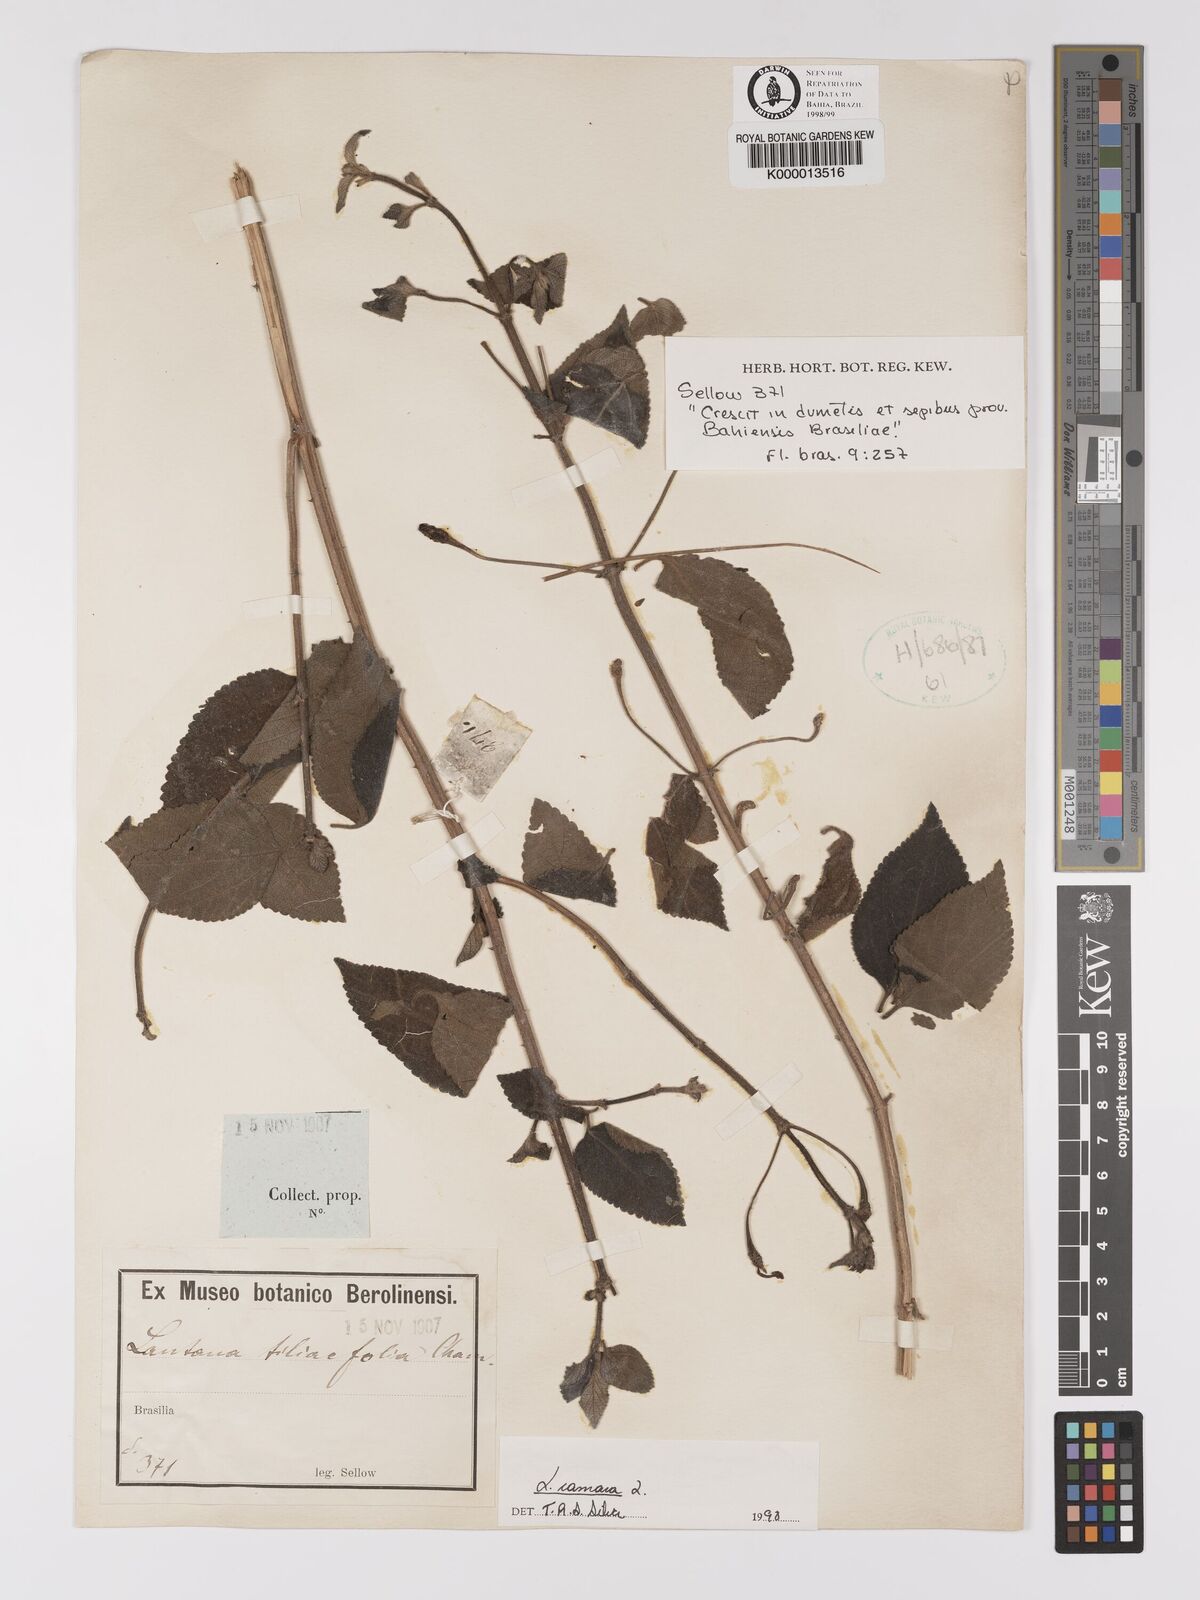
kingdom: Plantae
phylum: Tracheophyta
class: Magnoliopsida
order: Lamiales
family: Verbenaceae
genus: Lantana
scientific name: Lantana camara
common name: Lantana
